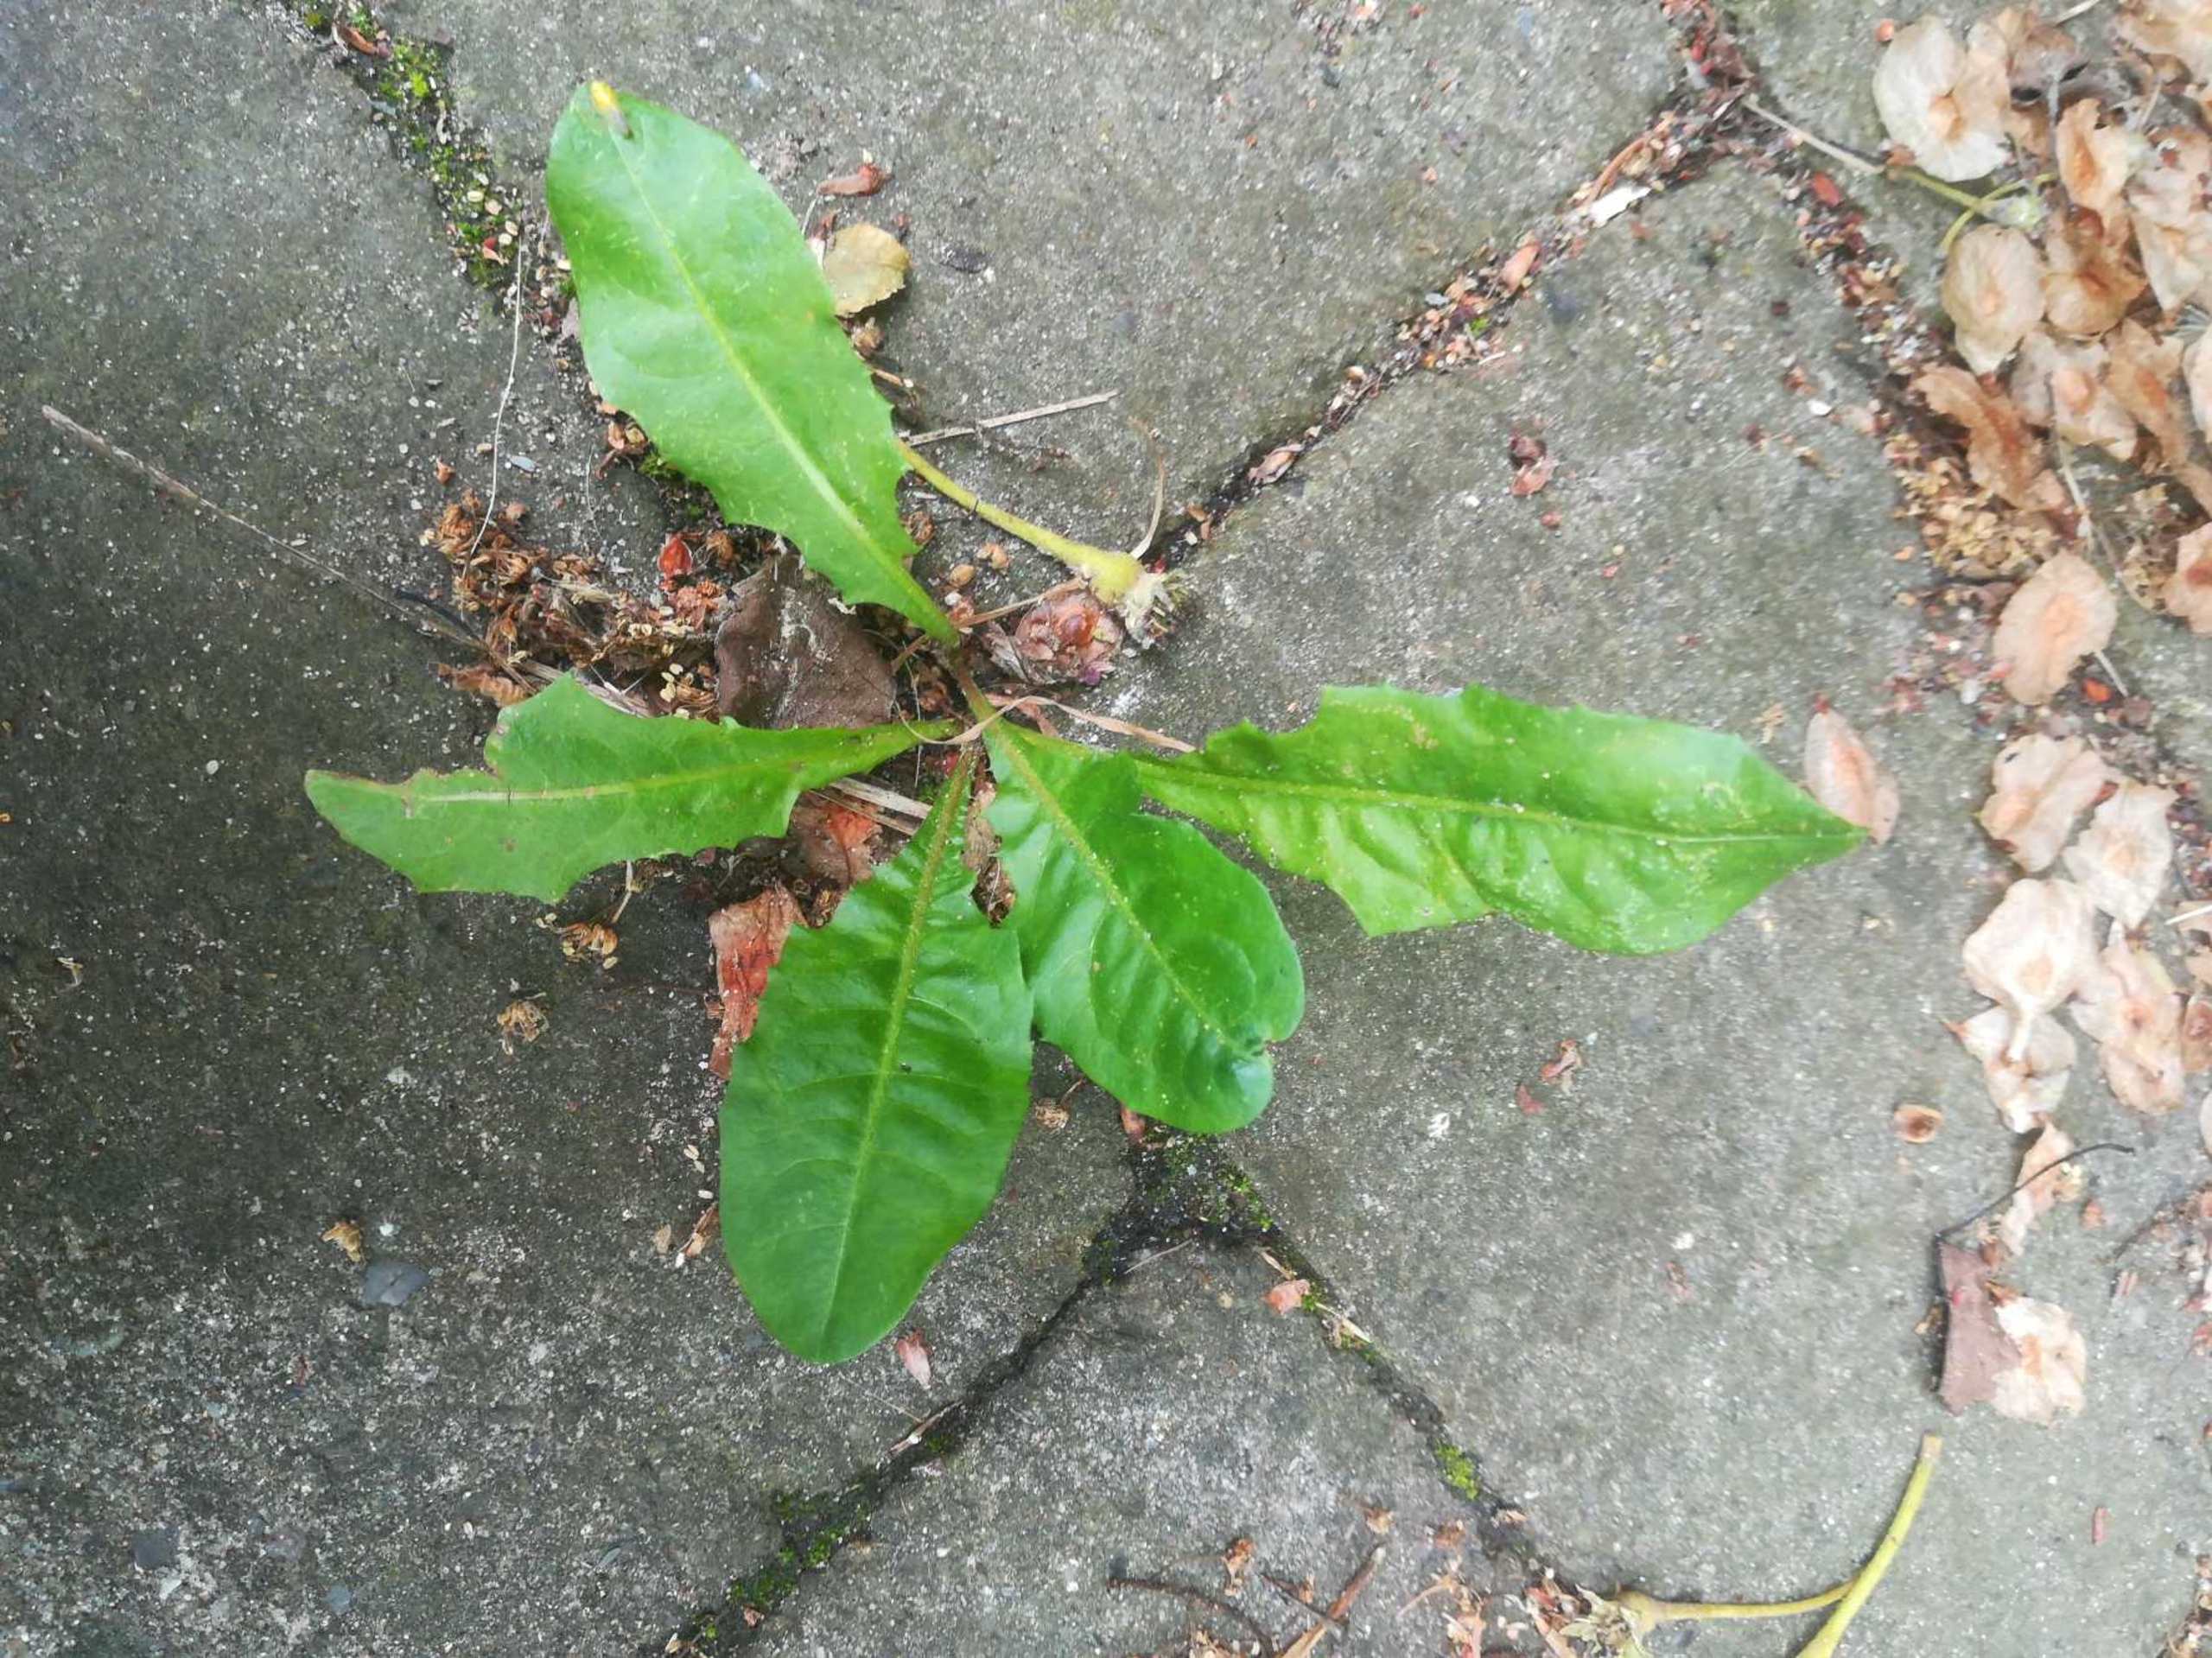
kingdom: Plantae
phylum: Tracheophyta
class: Magnoliopsida
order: Asterales
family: Asteraceae
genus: Taraxacum
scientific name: Taraxacum
